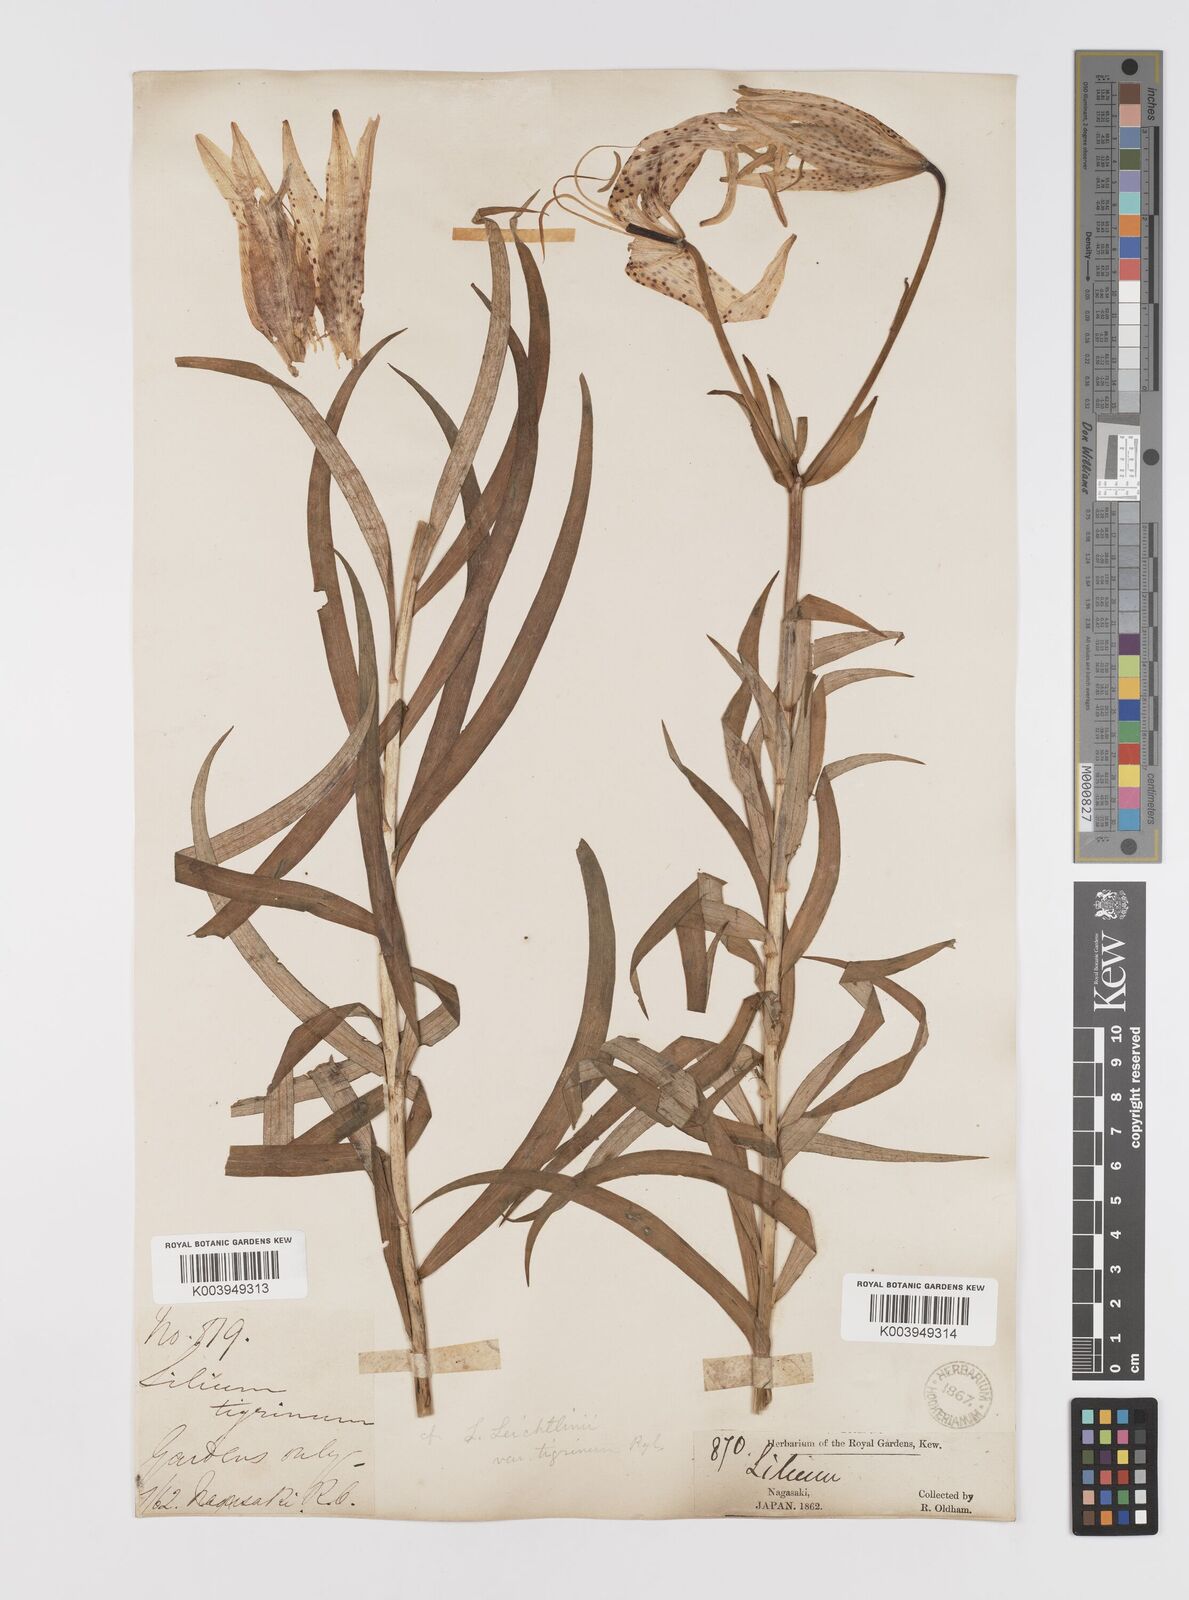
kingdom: Plantae
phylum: Tracheophyta
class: Liliopsida
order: Liliales
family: Liliaceae
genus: Lilium
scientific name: Lilium leichtlinii
